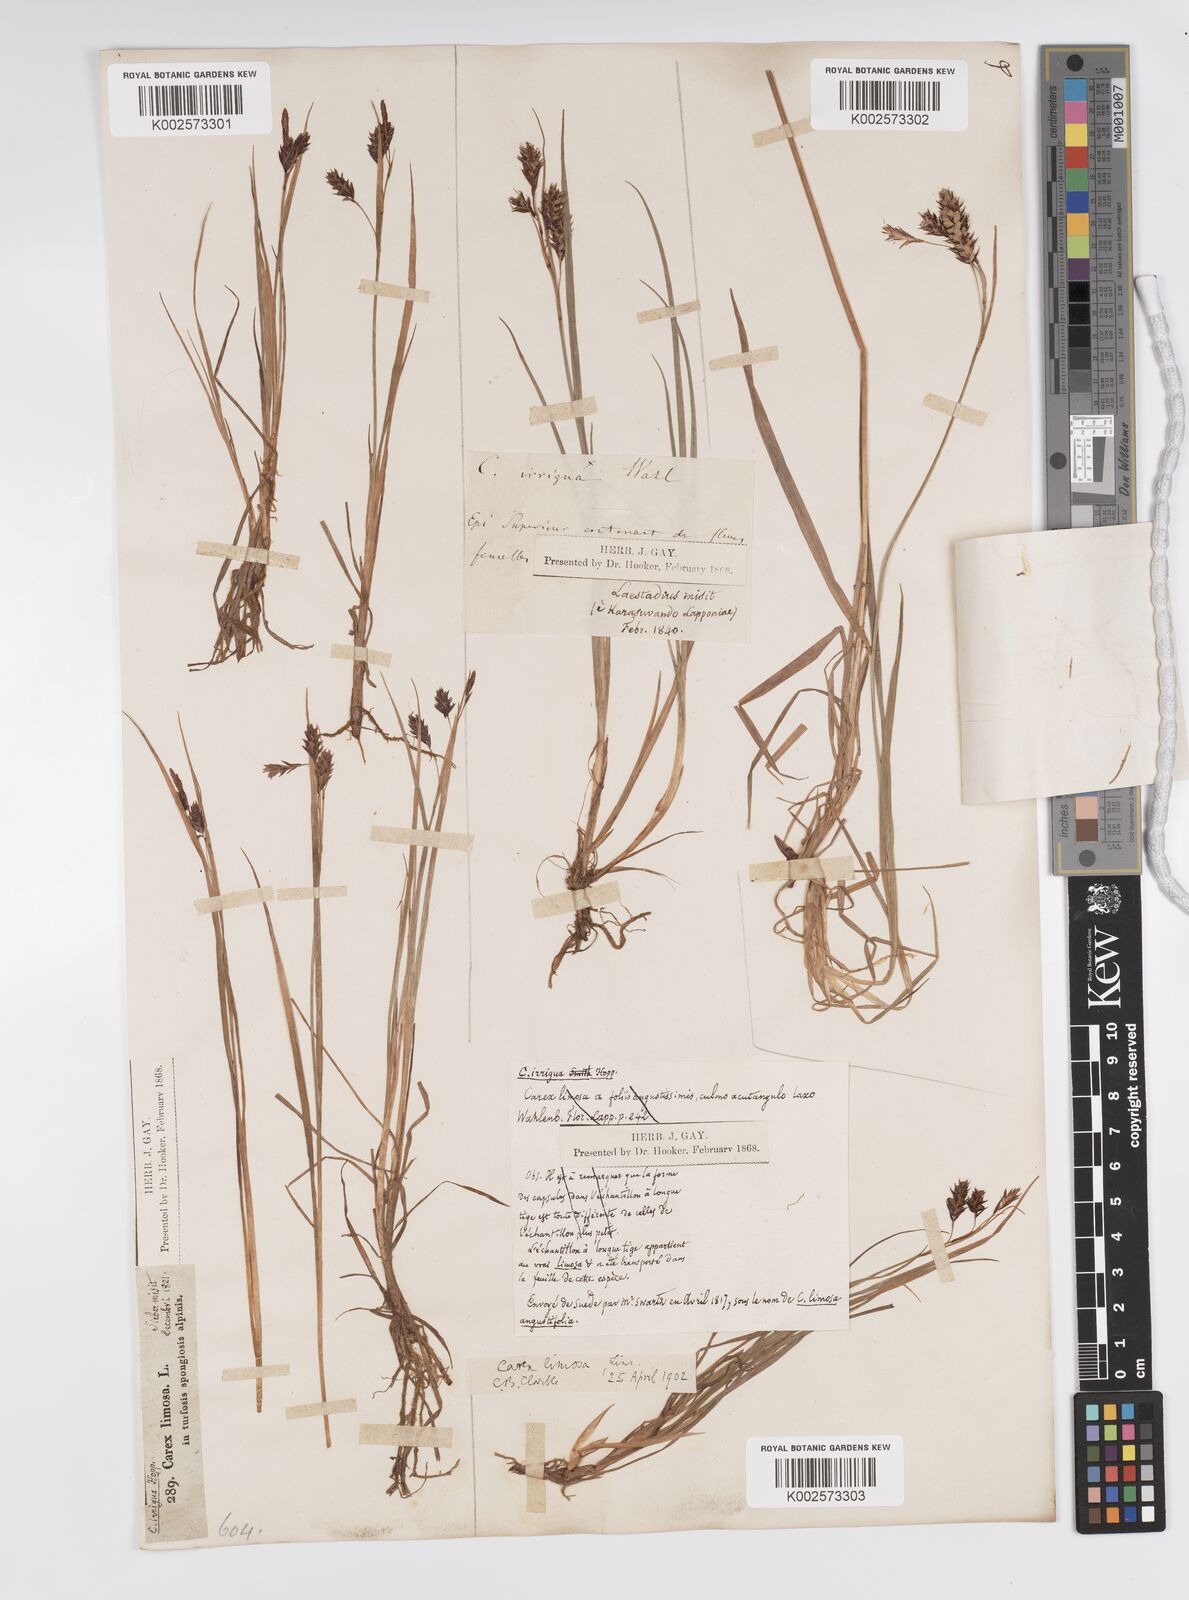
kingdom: Plantae
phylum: Tracheophyta
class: Liliopsida
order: Poales
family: Cyperaceae
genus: Carex
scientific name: Carex magellanica
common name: Bog sedge
